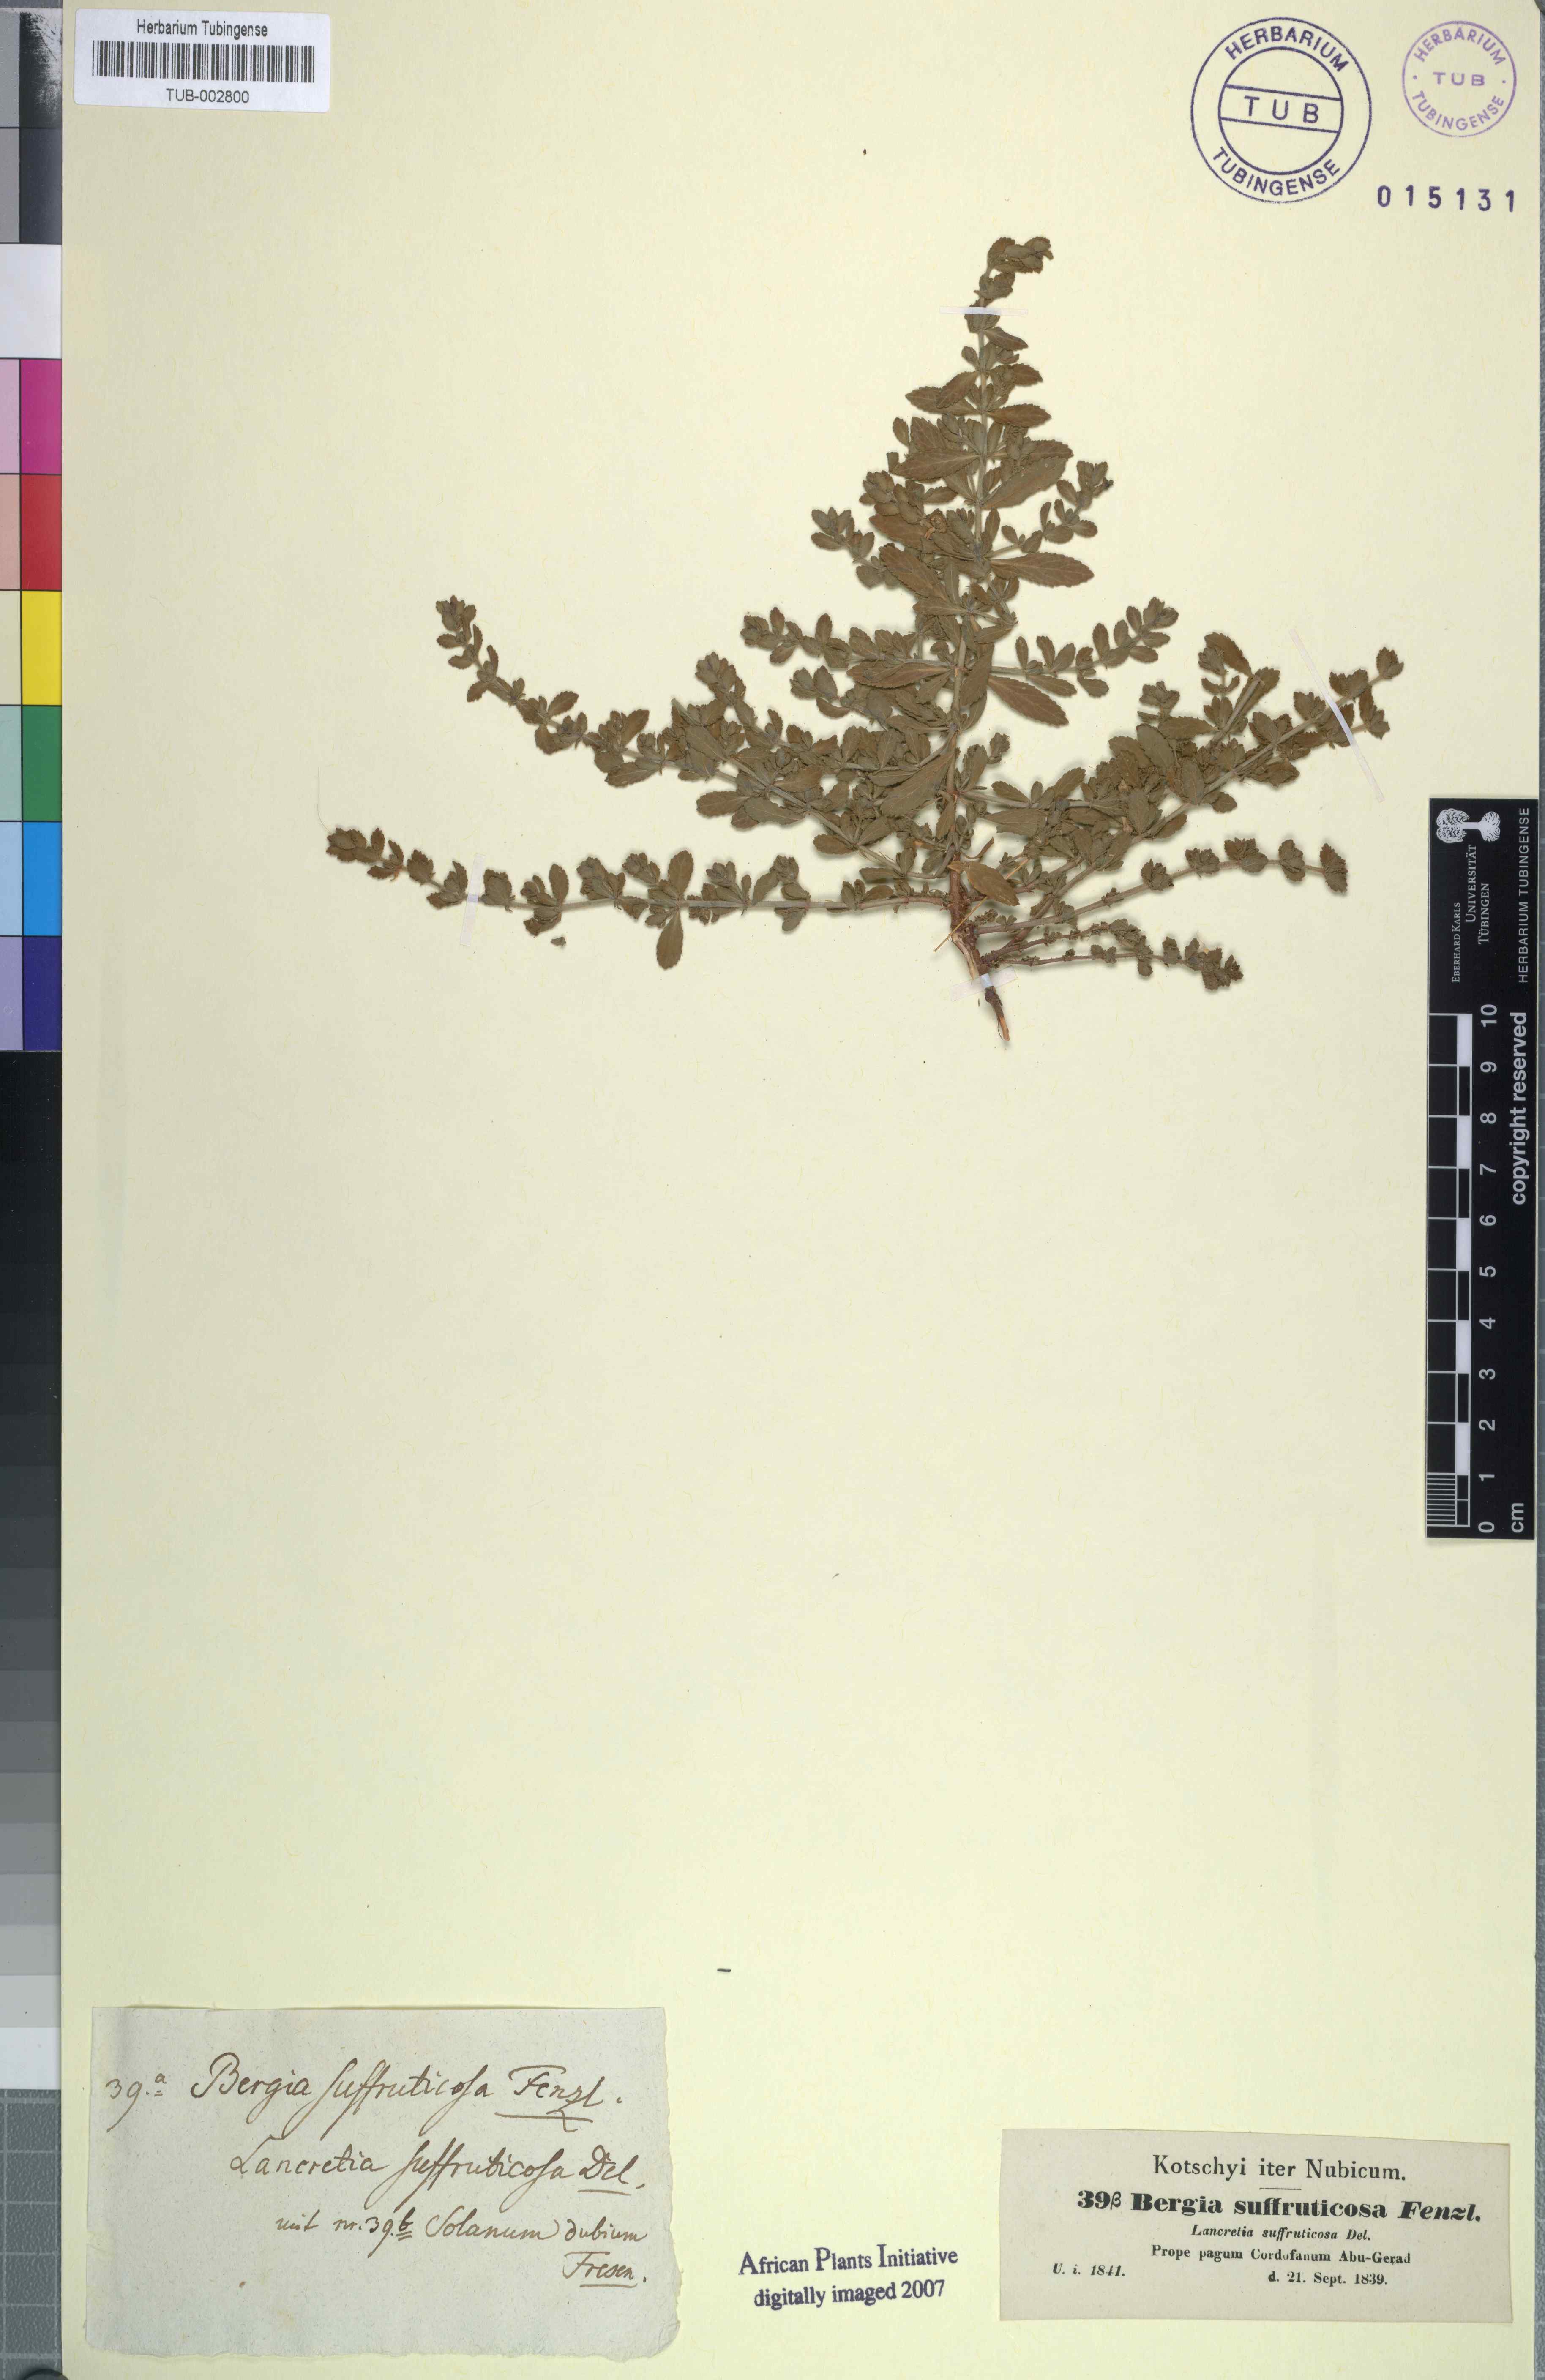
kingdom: Plantae
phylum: Tracheophyta
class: Magnoliopsida
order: Malpighiales
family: Elatinaceae
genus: Bergia
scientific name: Bergia suffruticosa
